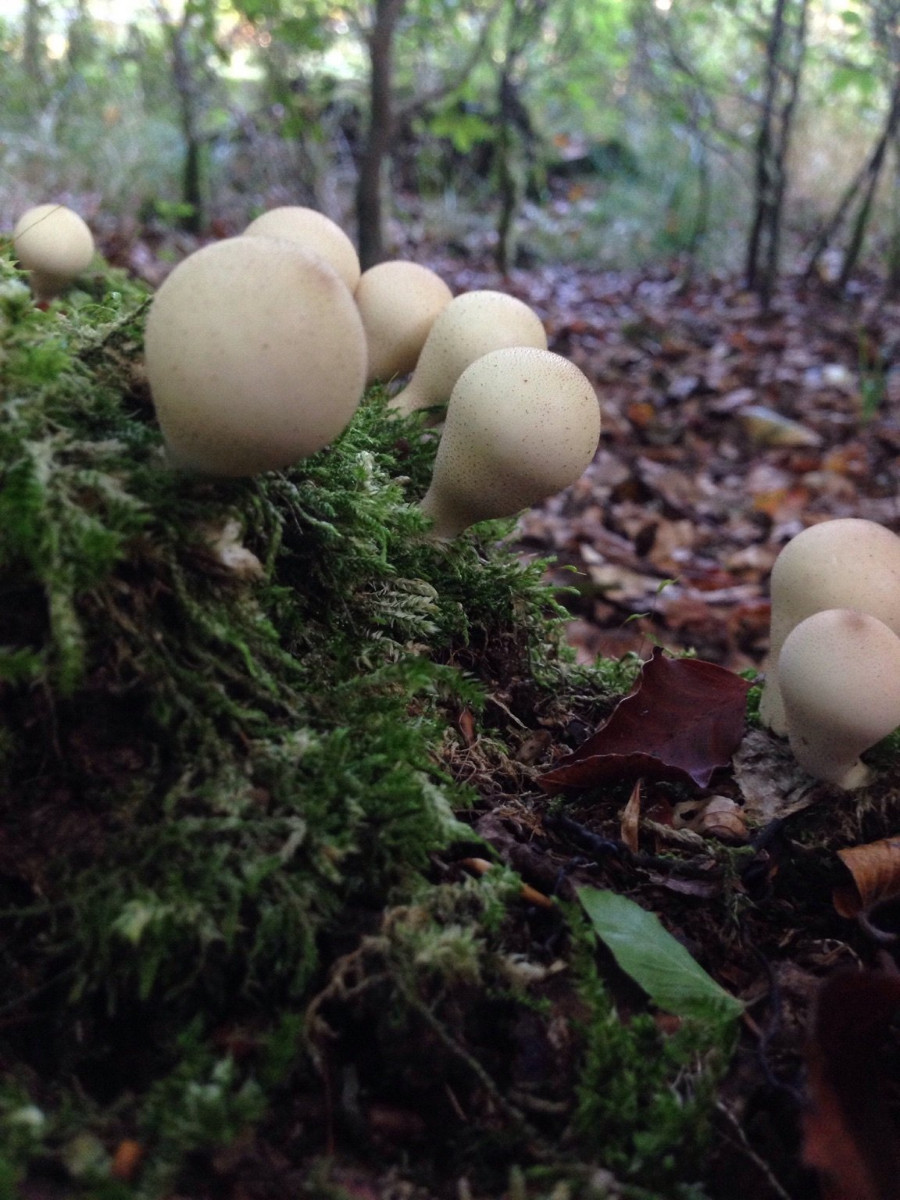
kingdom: Fungi
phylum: Basidiomycota
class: Agaricomycetes
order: Agaricales
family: Lycoperdaceae
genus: Apioperdon
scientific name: Apioperdon pyriforme
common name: pære-støvbold
